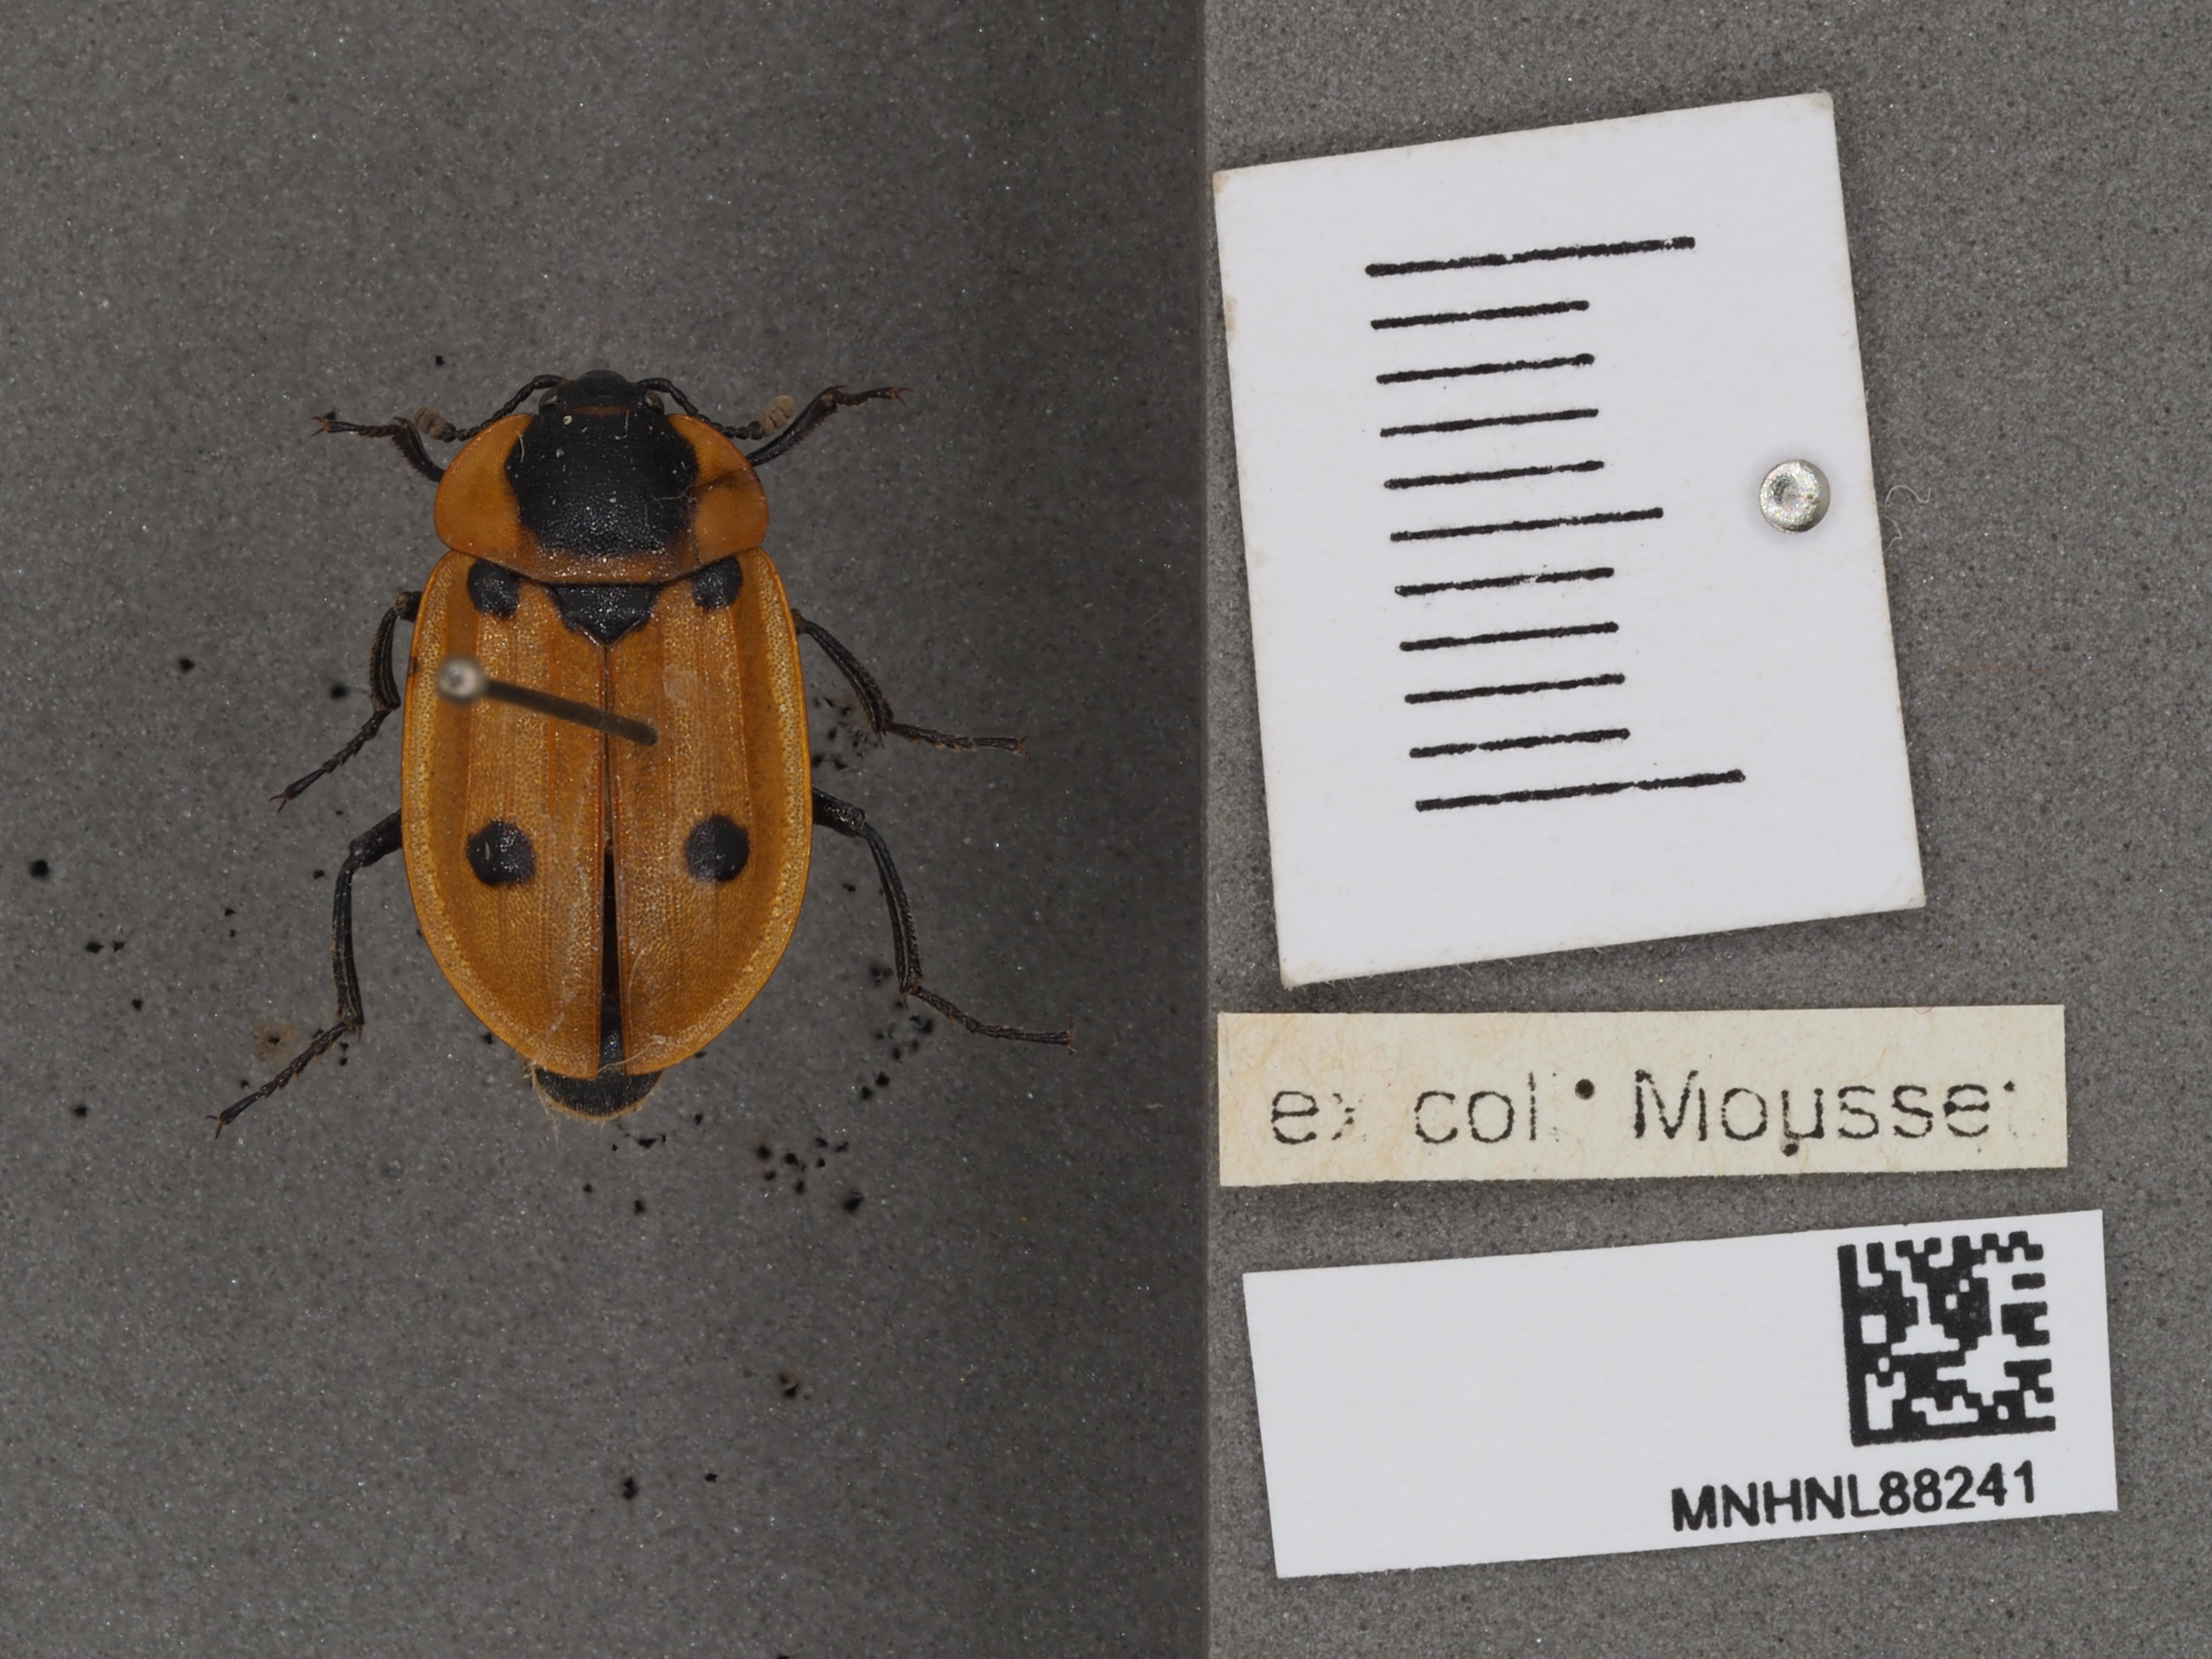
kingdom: Animalia
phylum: Arthropoda
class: Insecta
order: Coleoptera
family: Staphylinidae
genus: Dendroxena
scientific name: Dendroxena quadrimaculata
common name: Carrion beetle
